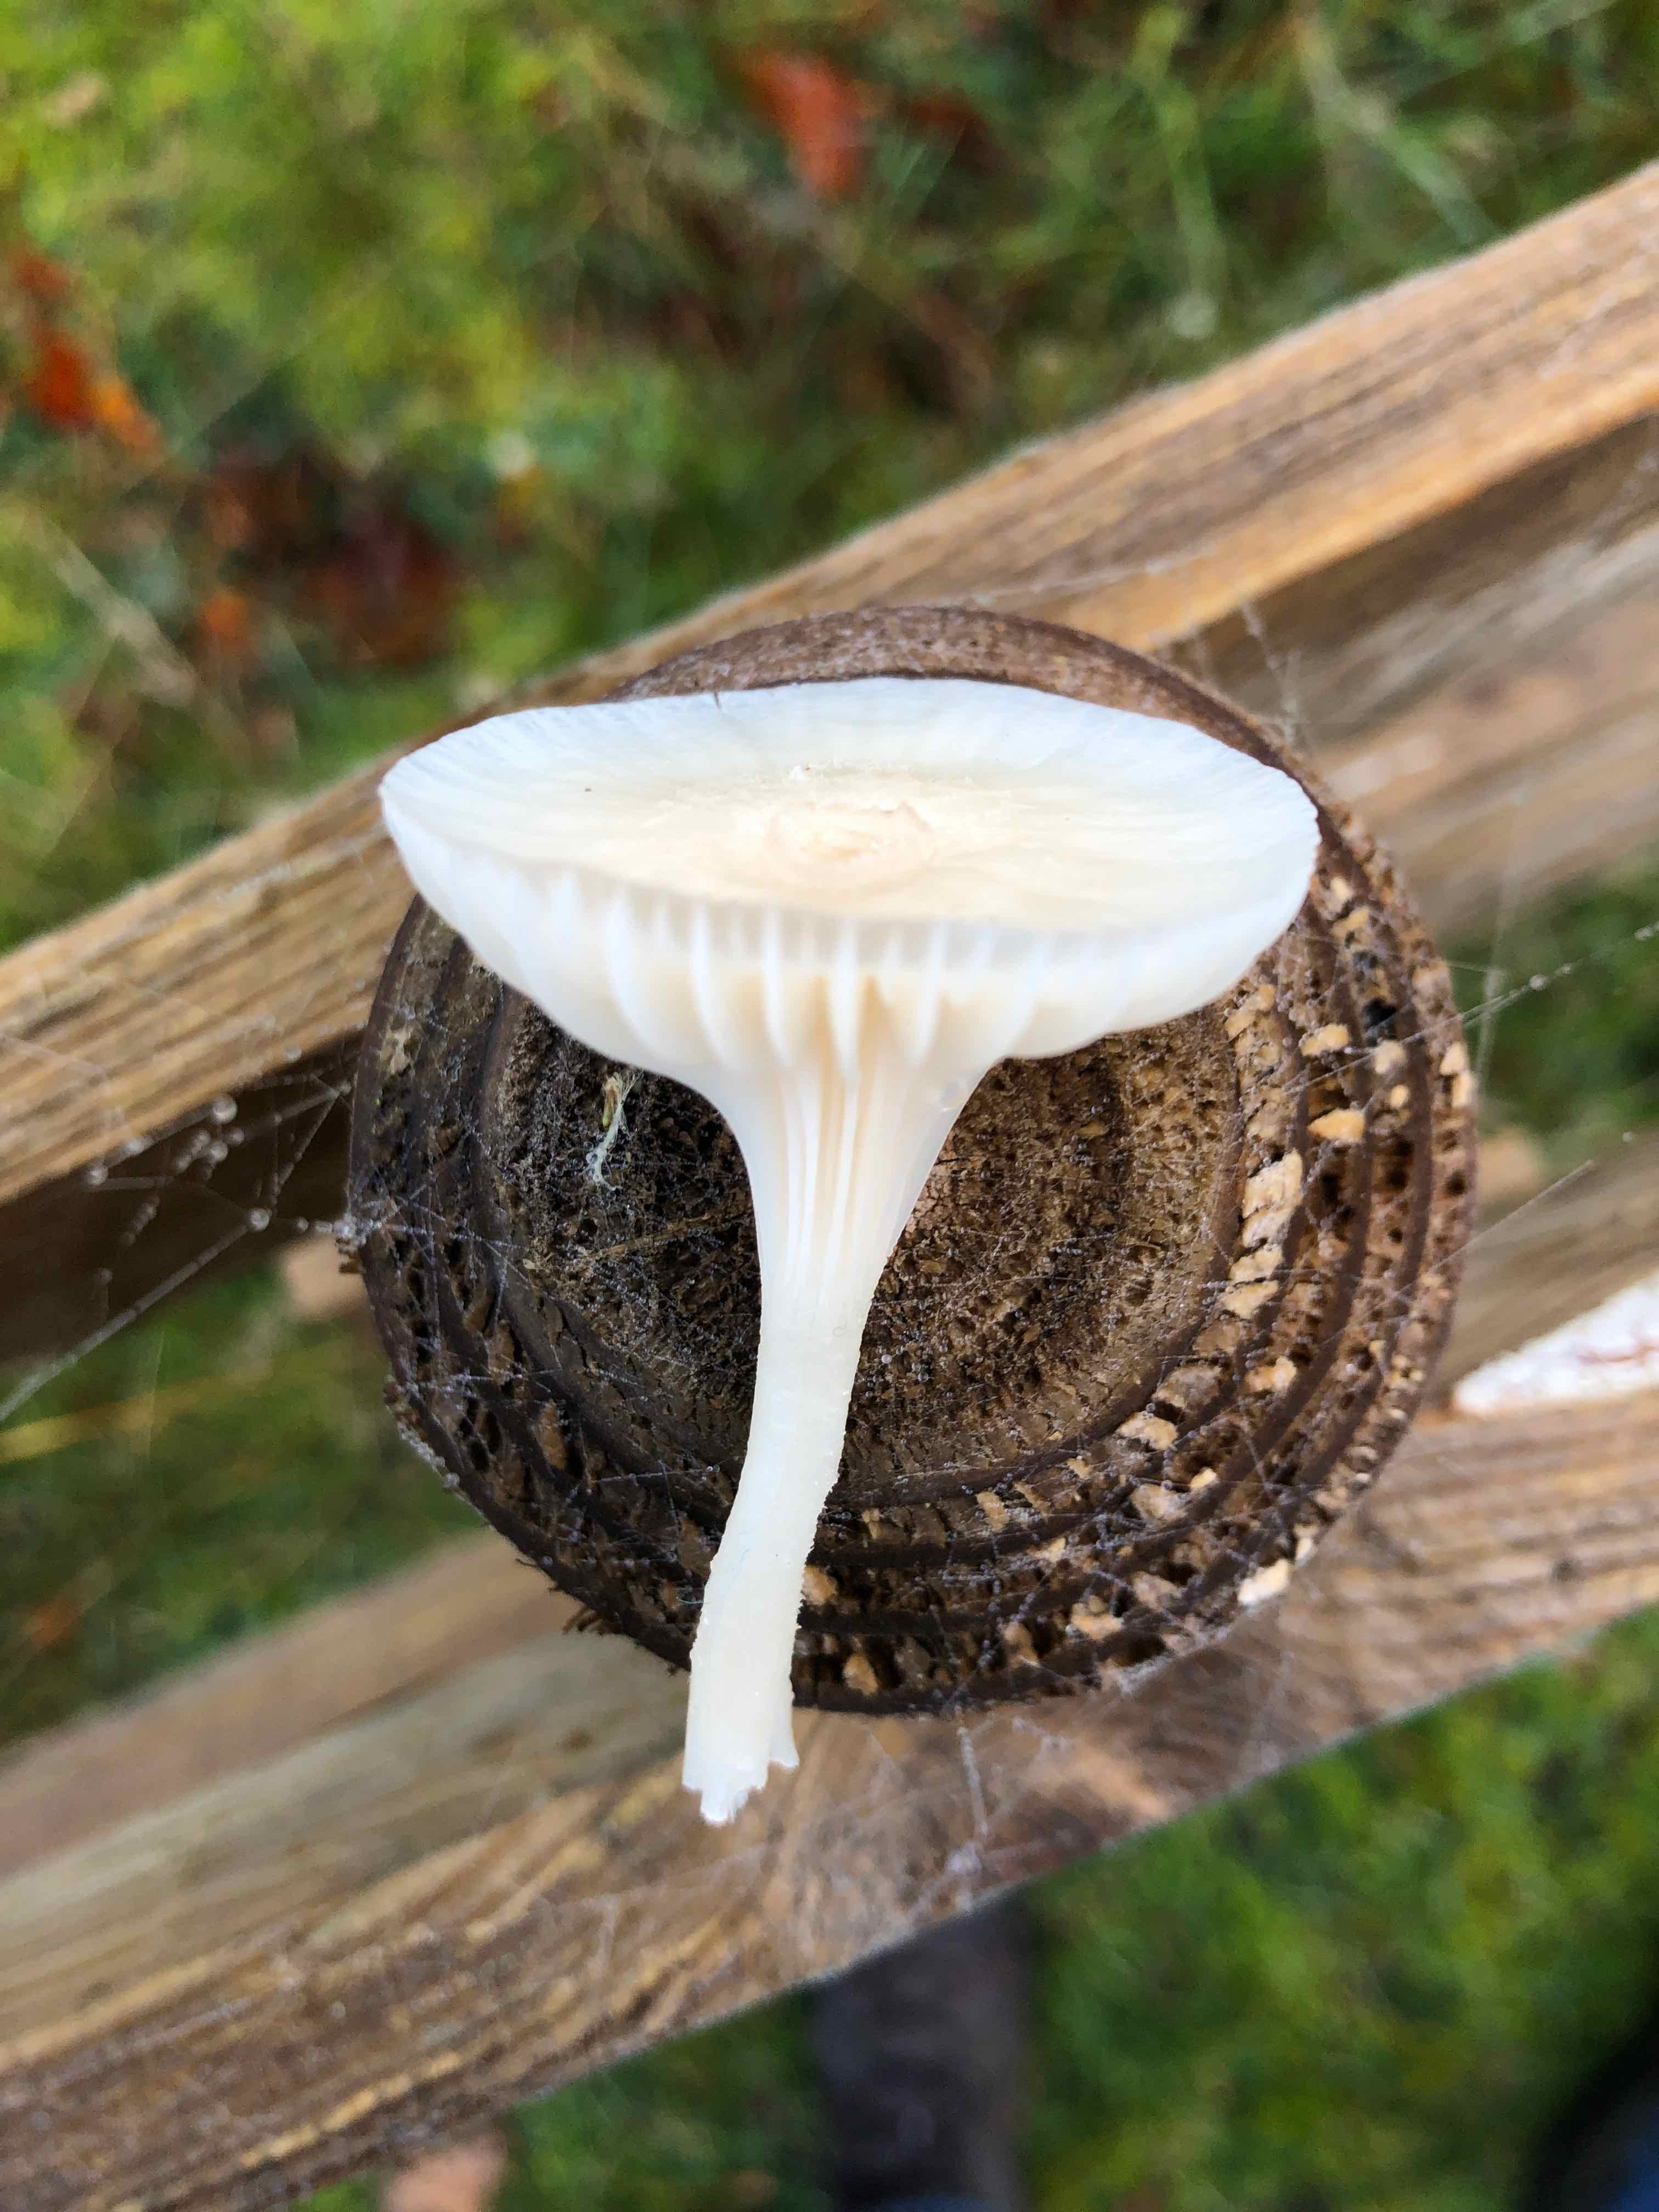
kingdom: Fungi
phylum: Basidiomycota
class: Agaricomycetes
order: Agaricales
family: Hygrophoraceae
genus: Cuphophyllus
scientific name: Cuphophyllus
